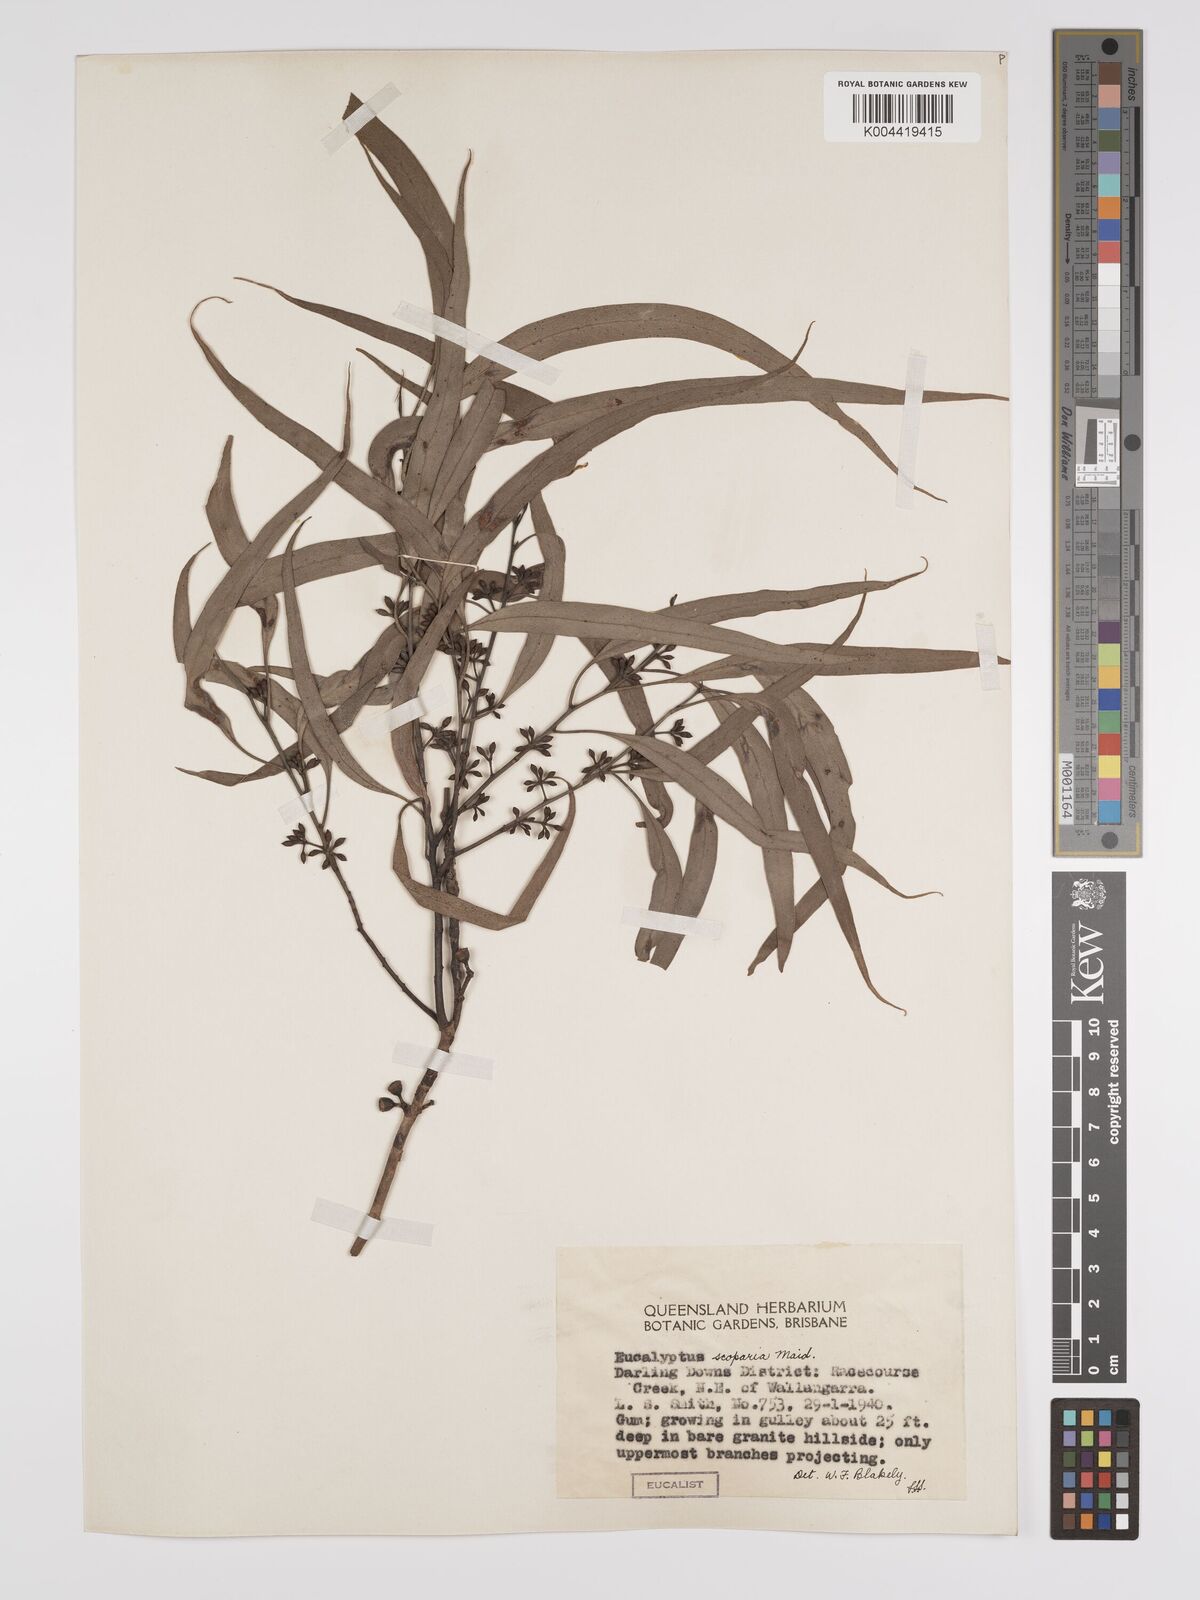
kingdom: Plantae
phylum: Tracheophyta
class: Magnoliopsida
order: Myrtales
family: Myrtaceae
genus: Eucalyptus
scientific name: Eucalyptus scoparia
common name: Wallangarra white gum
